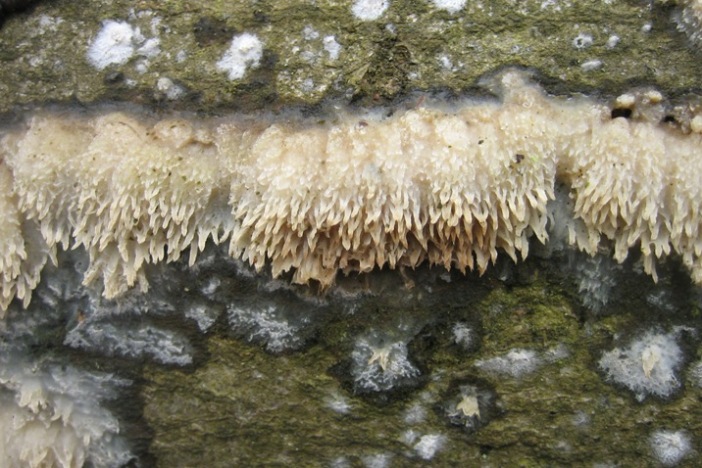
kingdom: Fungi
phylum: Basidiomycota
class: Agaricomycetes
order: Hymenochaetales
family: Schizoporaceae
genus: Xylodon
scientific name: Xylodon radula
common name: grovtandet kalkskind
